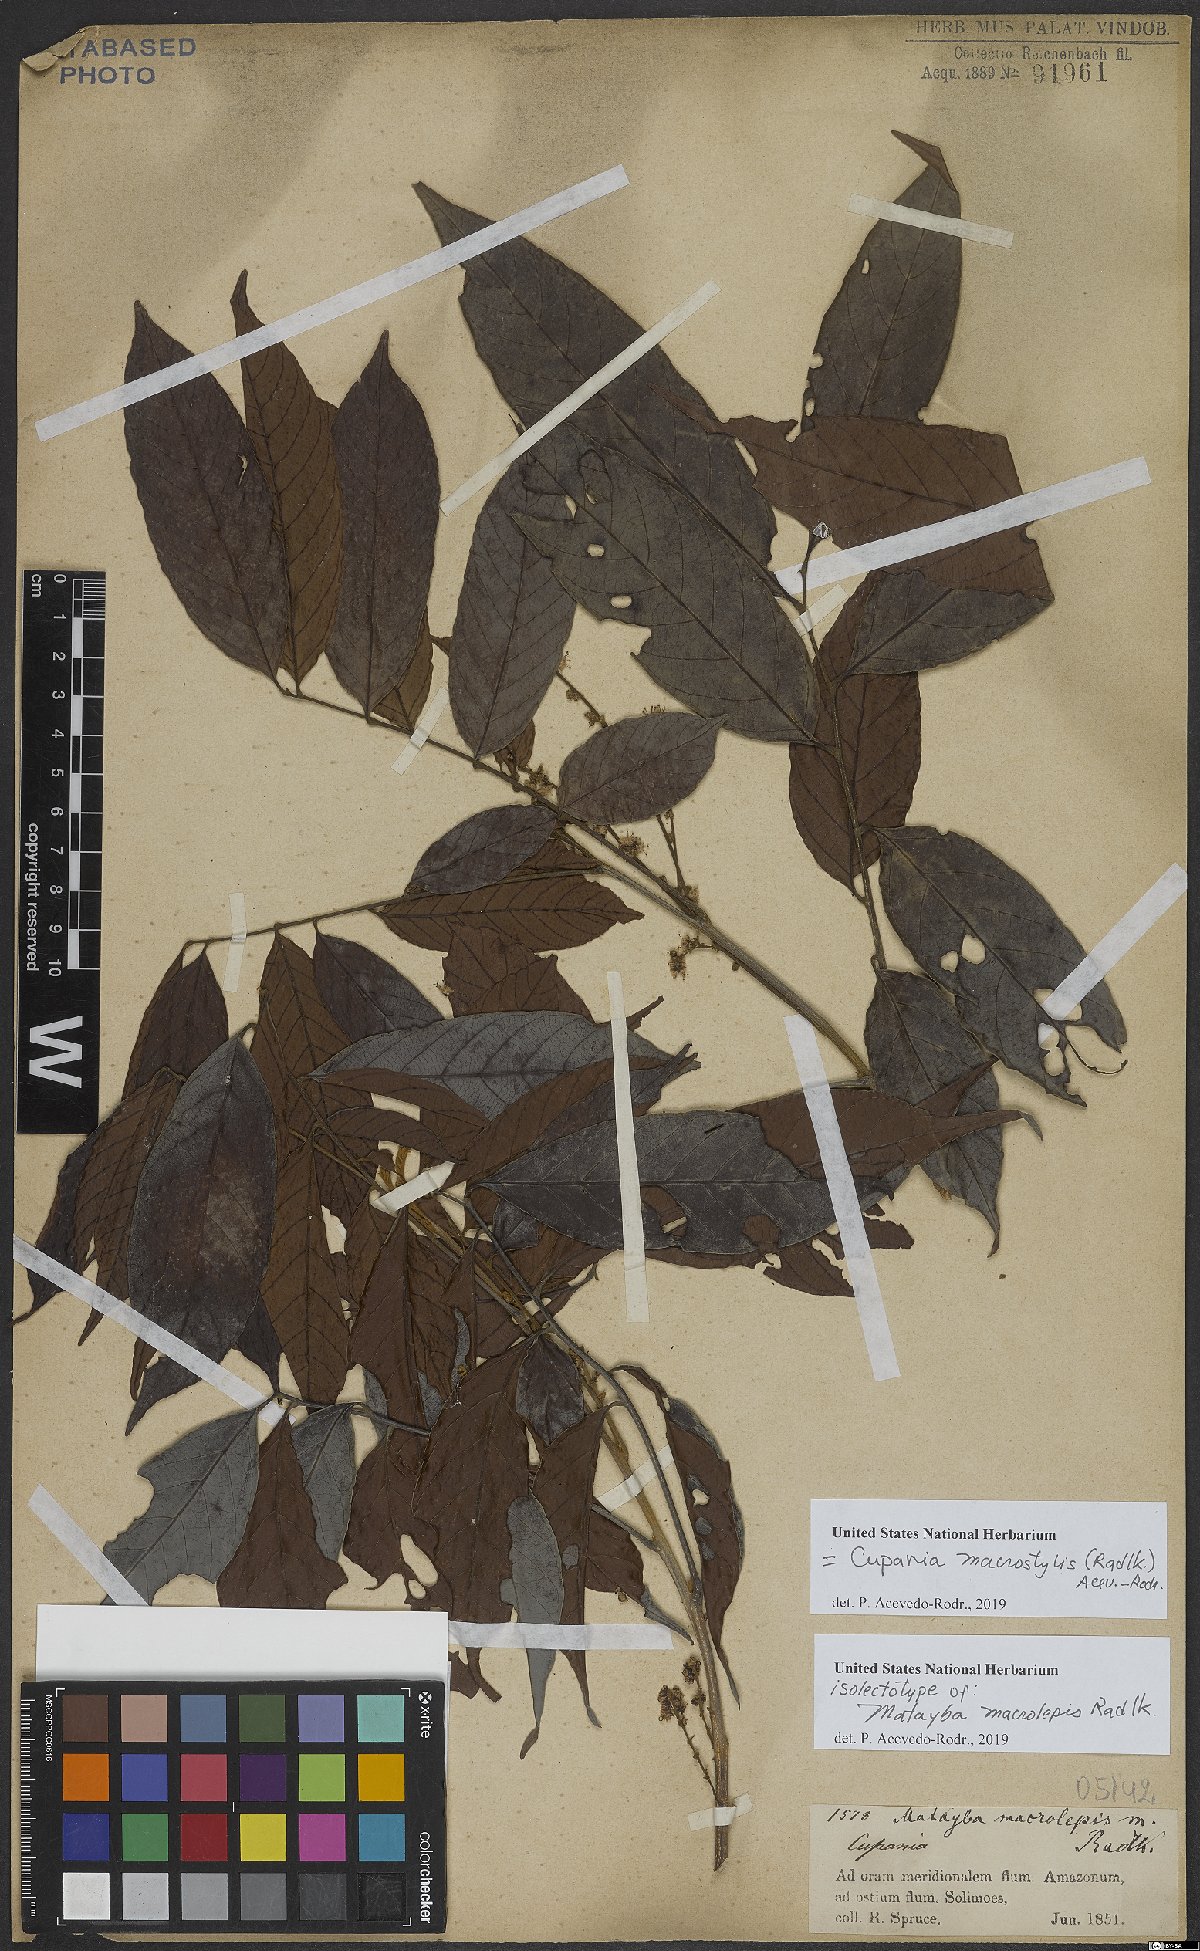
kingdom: Plantae
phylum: Tracheophyta
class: Magnoliopsida
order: Sapindales
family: Sapindaceae
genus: Cupania
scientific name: Cupania macrostylis
